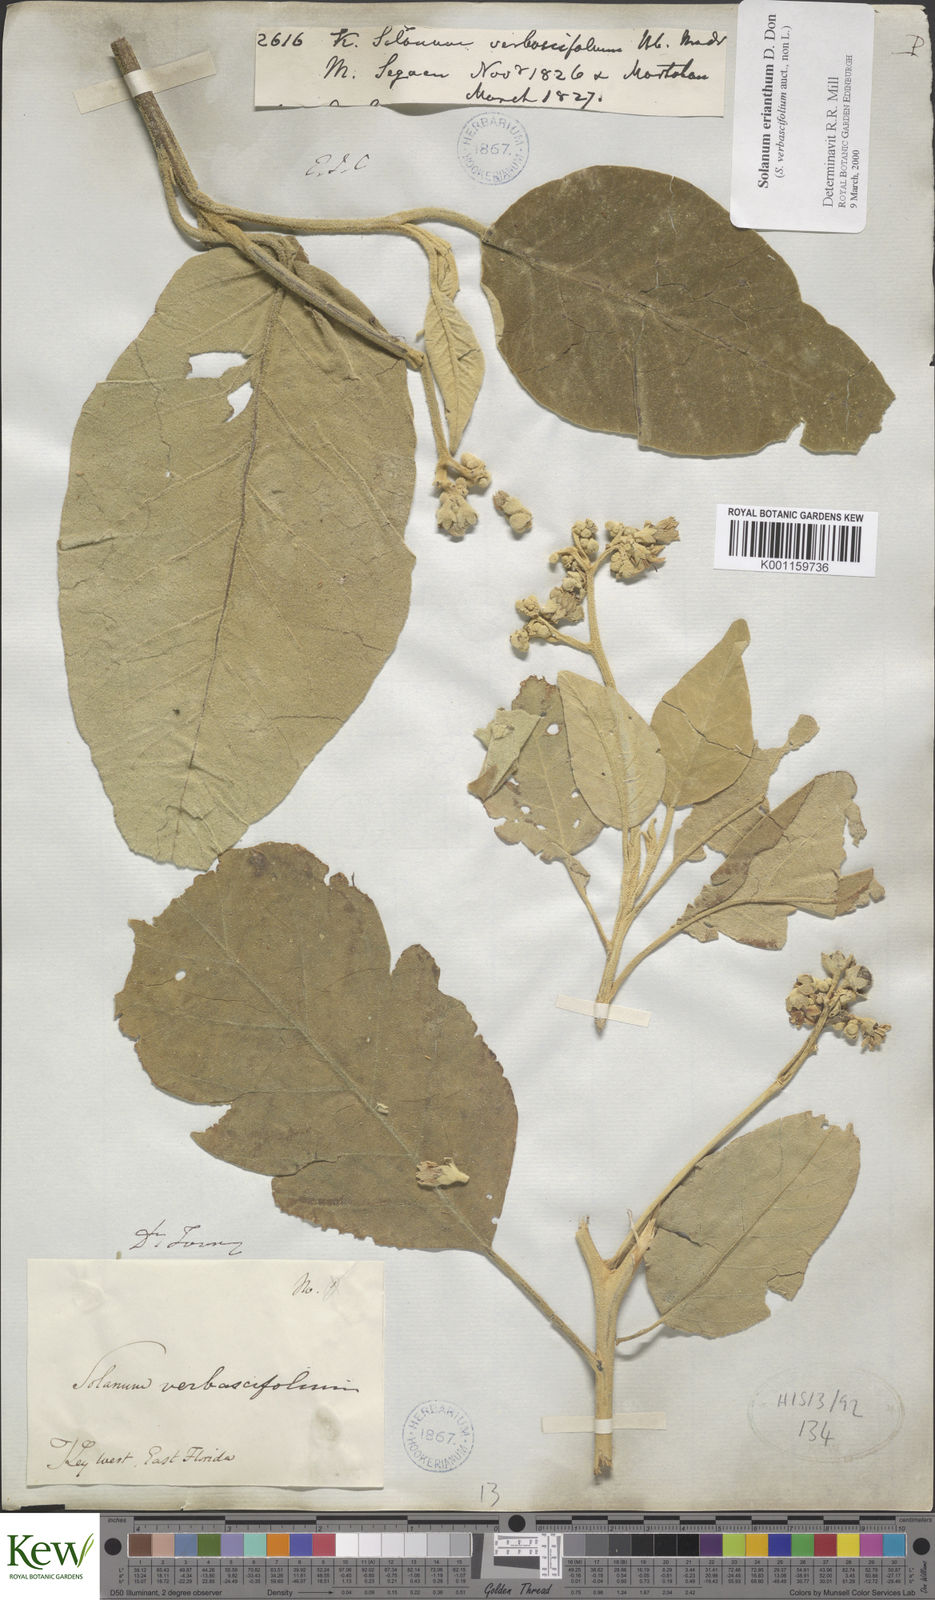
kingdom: Plantae
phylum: Tracheophyta
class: Magnoliopsida
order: Solanales
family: Solanaceae
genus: Solanum
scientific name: Solanum donianum
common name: Mullein nightshade
